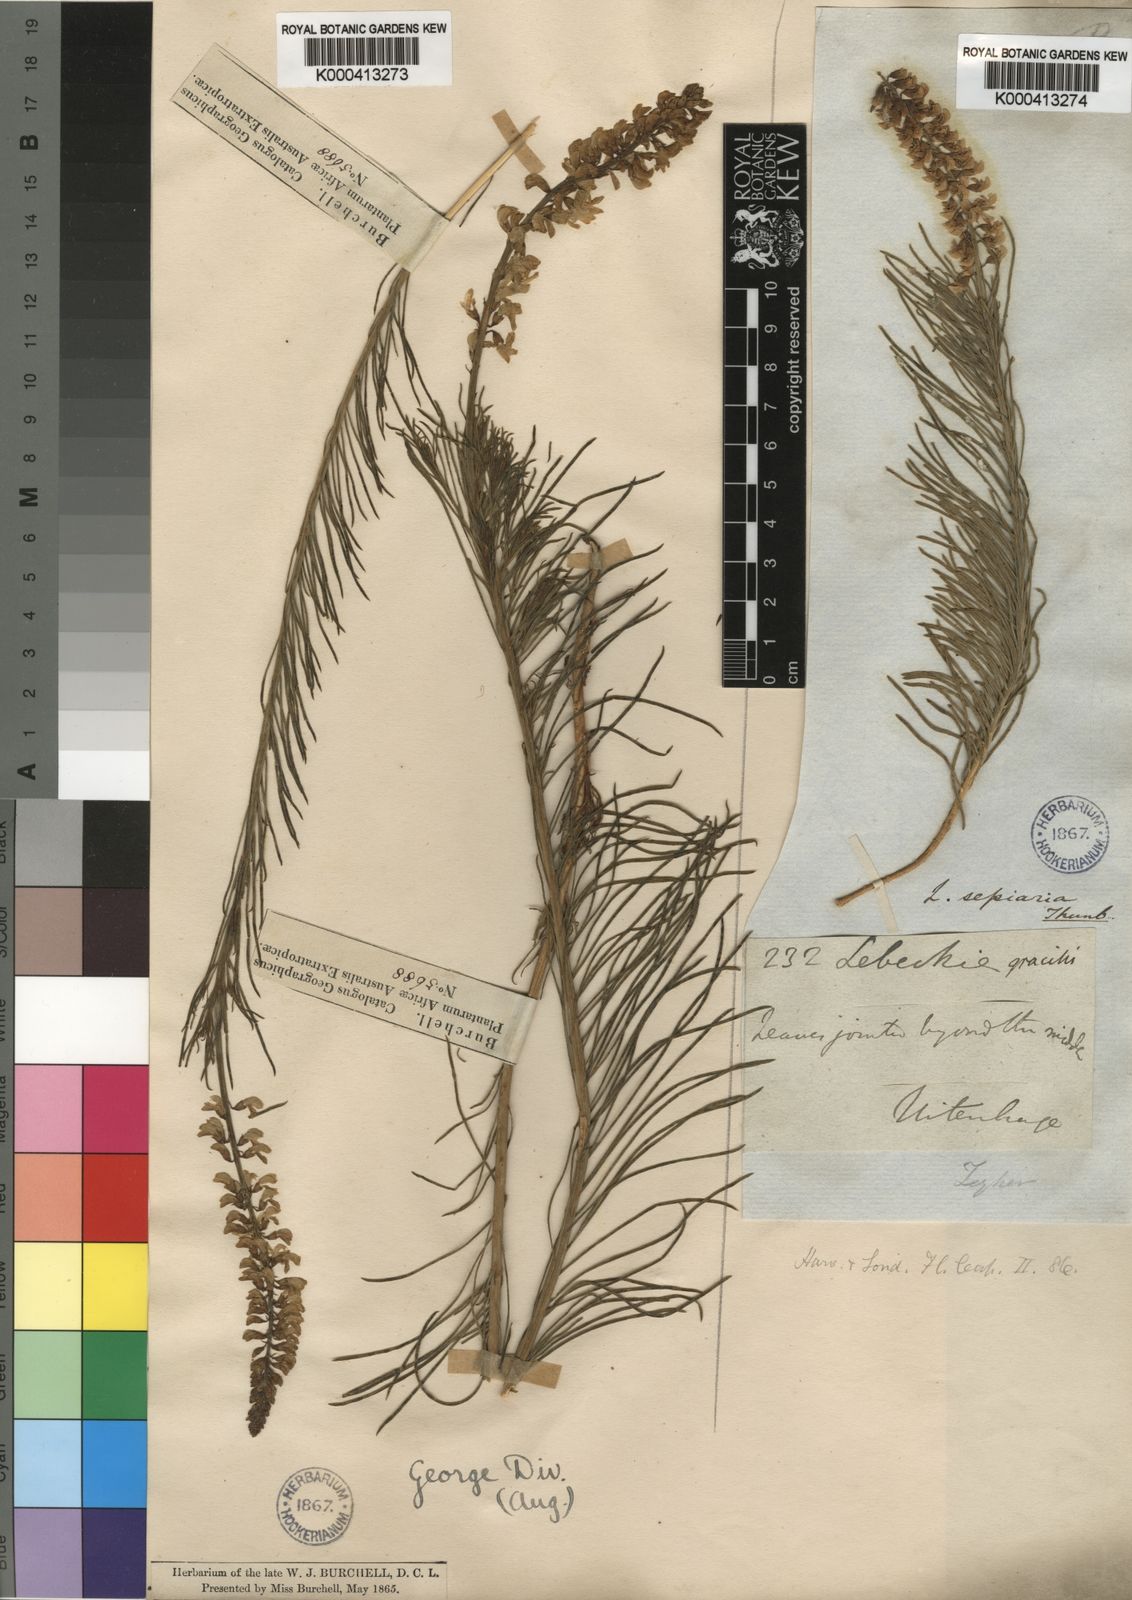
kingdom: Plantae
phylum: Tracheophyta
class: Magnoliopsida
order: Fabales
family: Fabaceae
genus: Lebeckia
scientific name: Lebeckia gracilis
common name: Slender ganna
